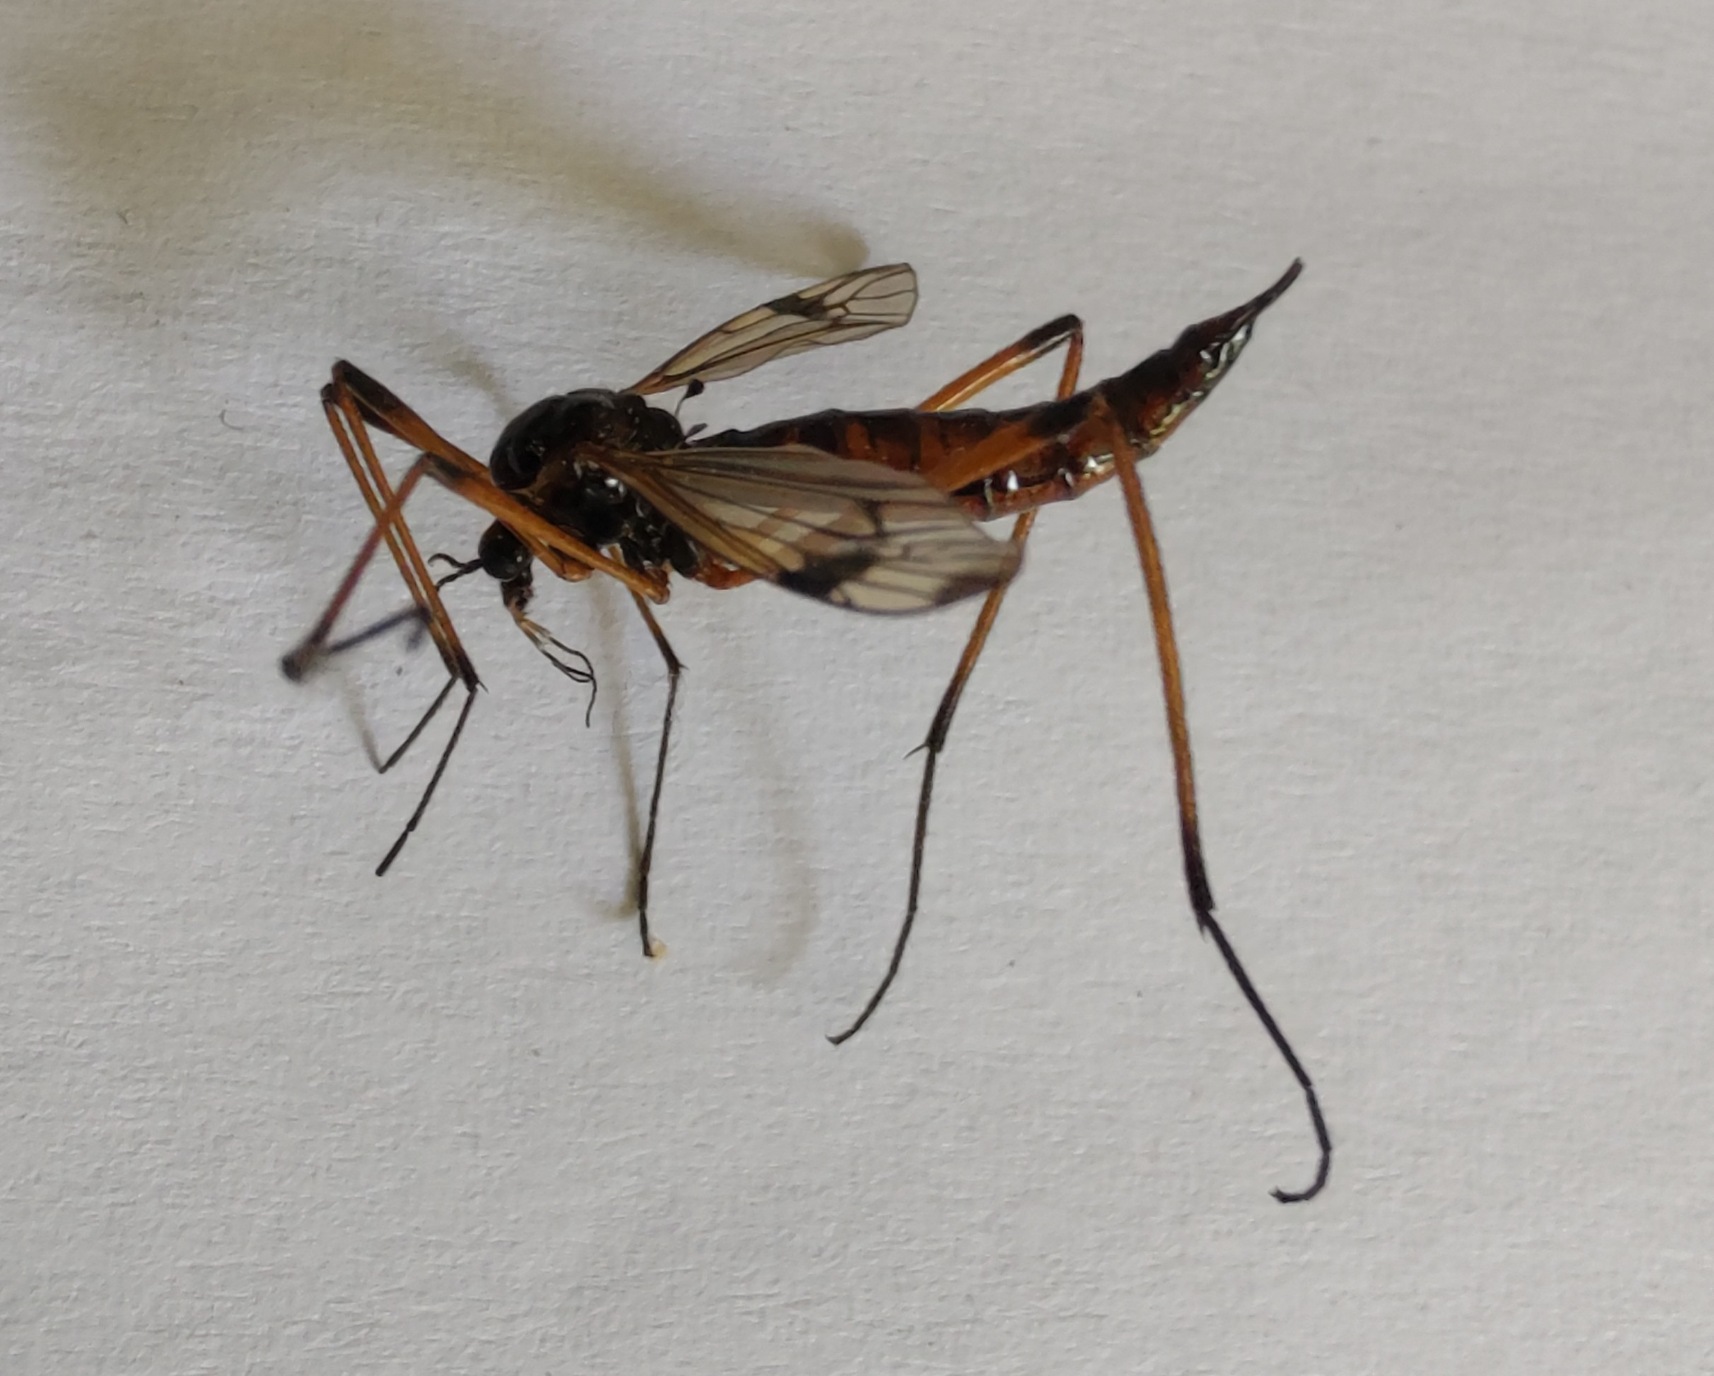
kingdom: Animalia
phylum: Arthropoda
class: Insecta
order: Diptera
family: Tipulidae
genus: Dictenidia
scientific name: Dictenidia bimaculata
